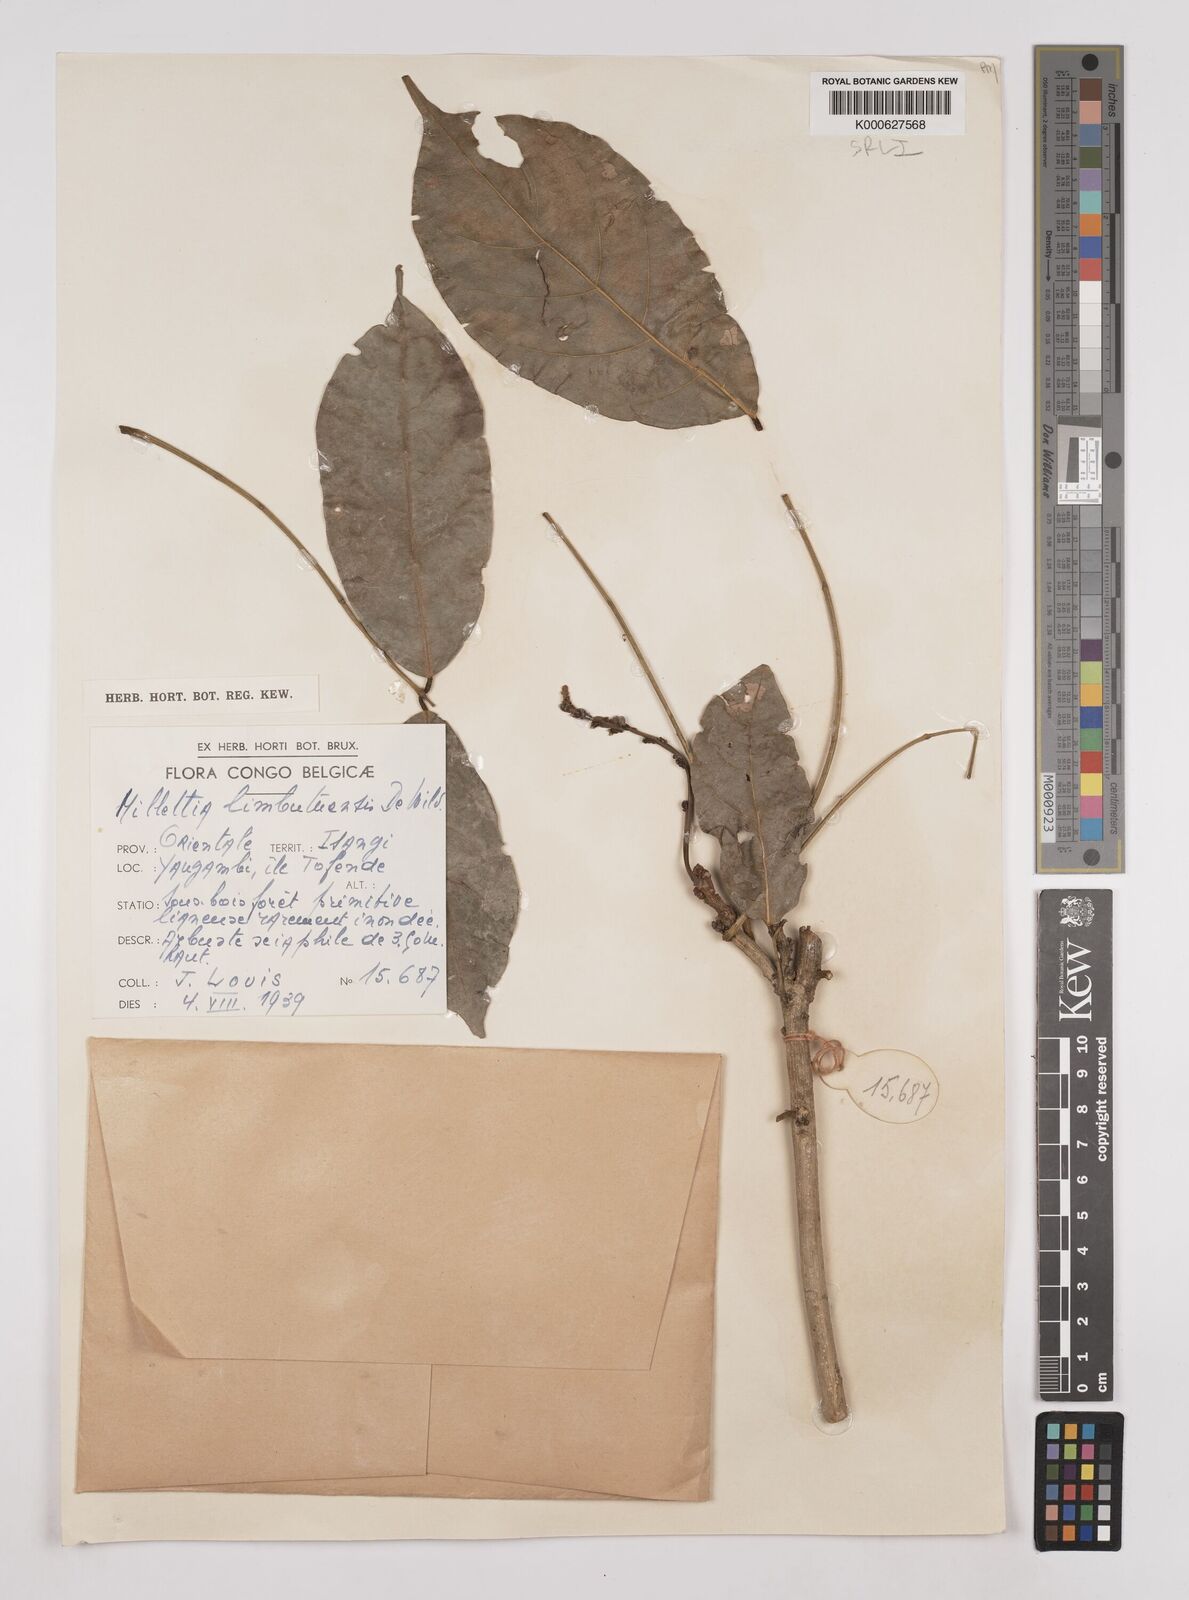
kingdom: Plantae
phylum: Tracheophyta
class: Magnoliopsida
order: Fabales
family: Fabaceae
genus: Millettia
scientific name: Millettia limbutuensis
